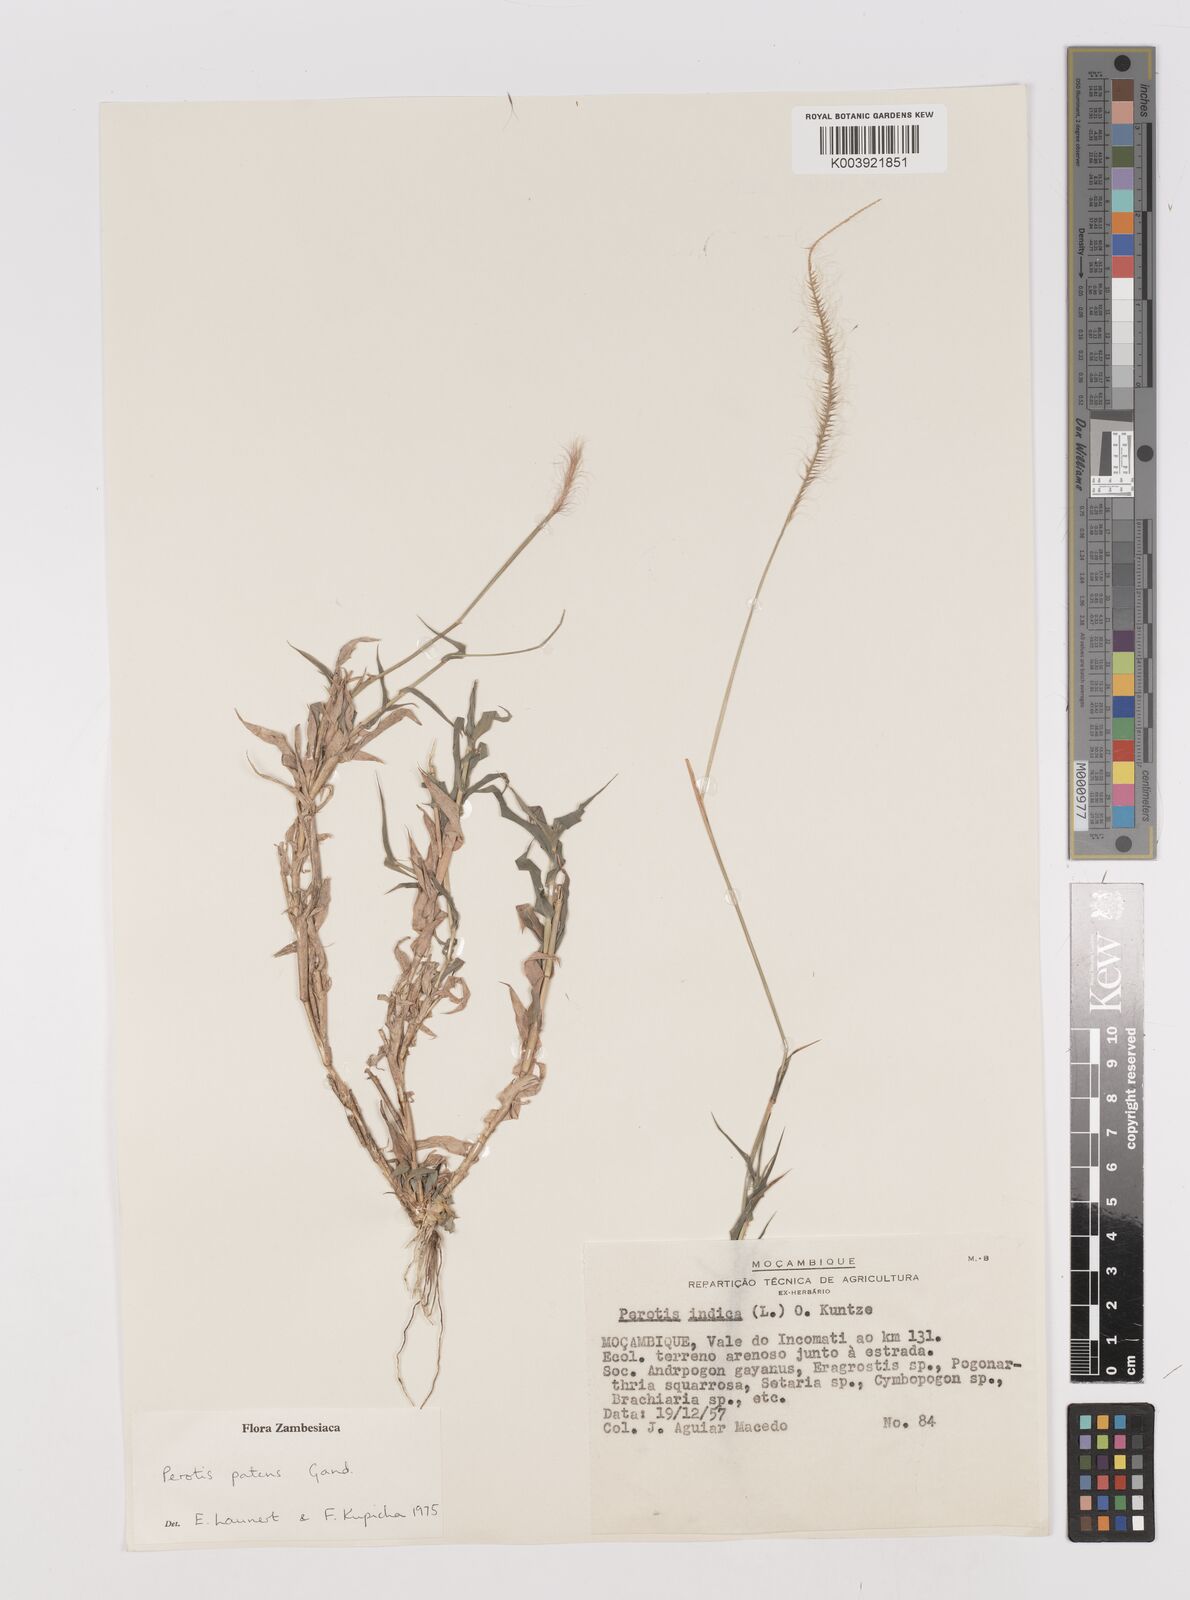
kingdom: Plantae
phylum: Tracheophyta
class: Liliopsida
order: Poales
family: Poaceae
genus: Perotis
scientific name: Perotis patens
